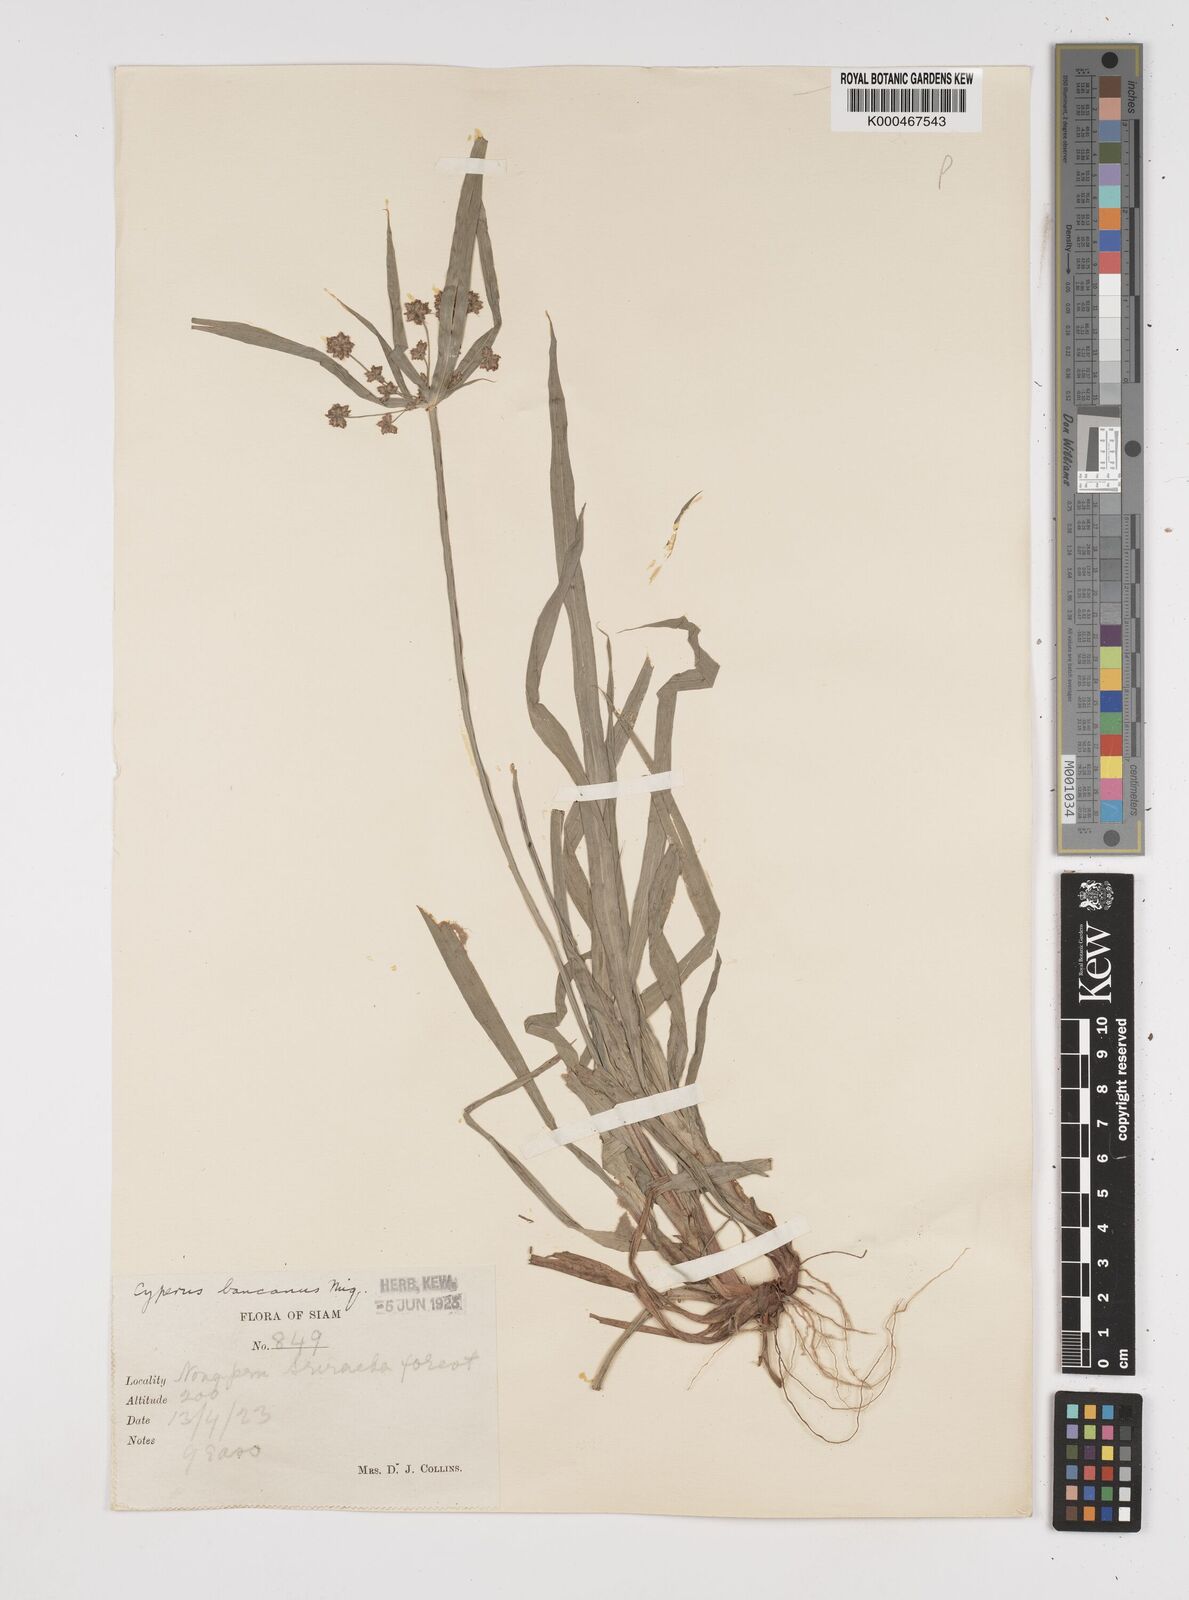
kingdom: Plantae
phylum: Tracheophyta
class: Liliopsida
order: Poales
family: Cyperaceae
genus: Cyperus
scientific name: Cyperus trialatus
